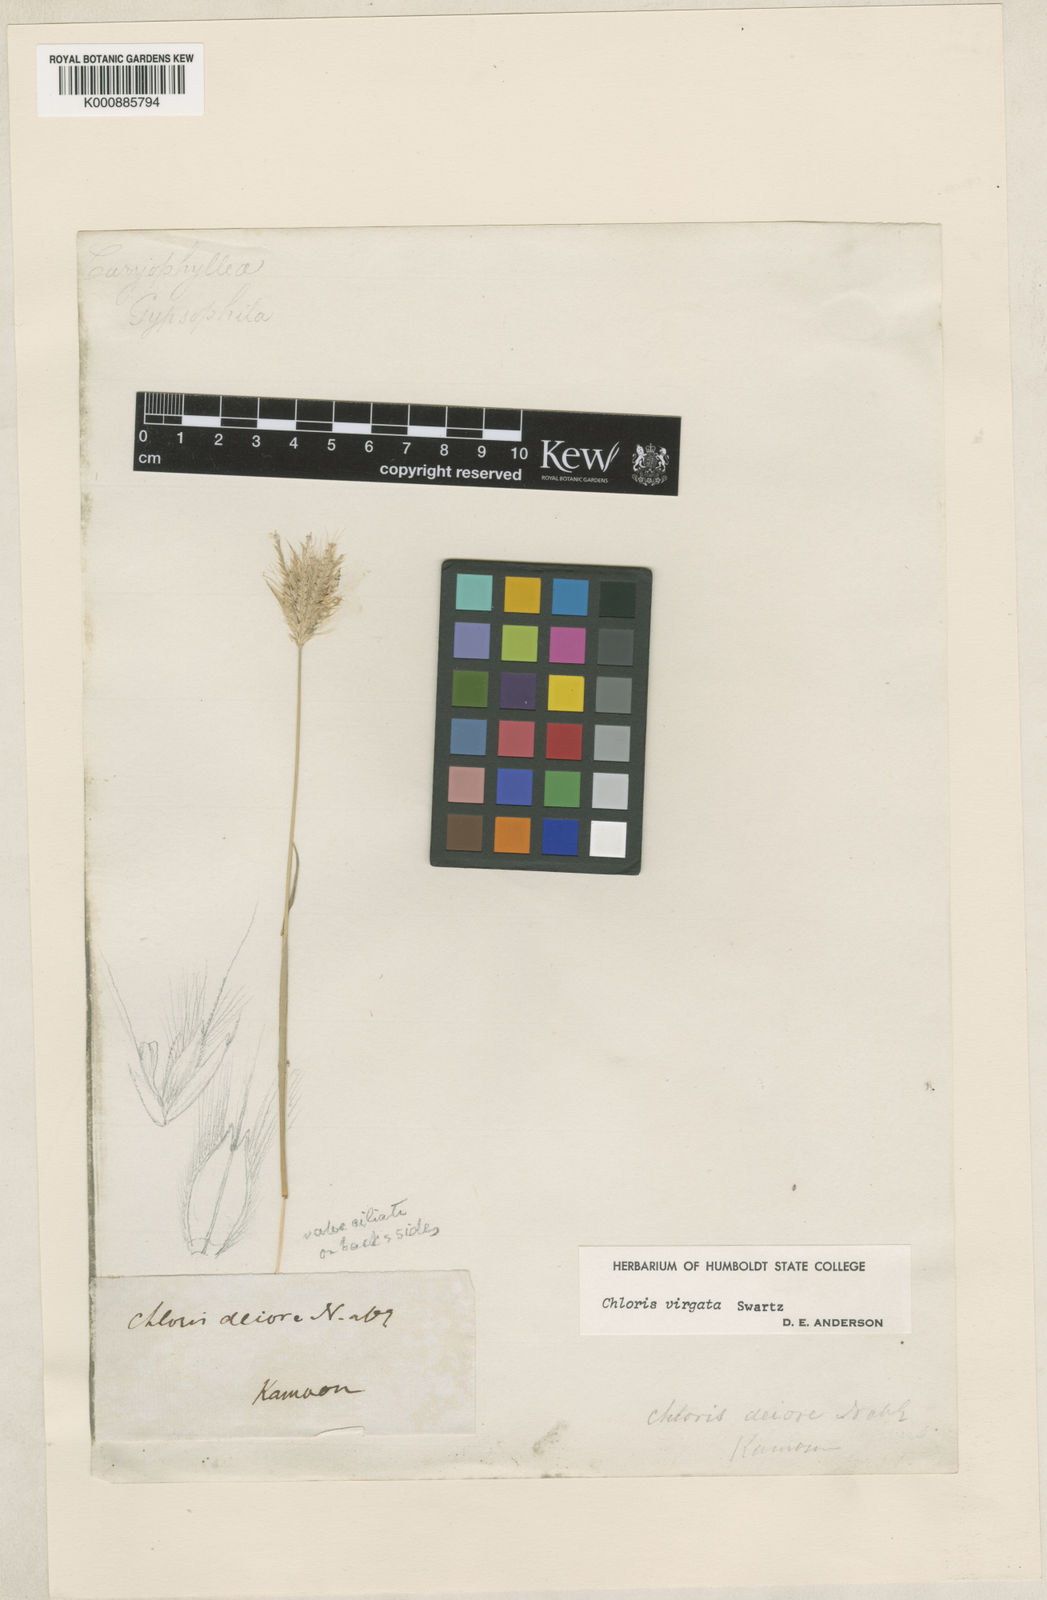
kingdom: Plantae
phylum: Tracheophyta
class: Liliopsida
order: Poales
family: Poaceae
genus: Chloris
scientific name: Chloris virgata
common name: Feathery rhodes-grass
